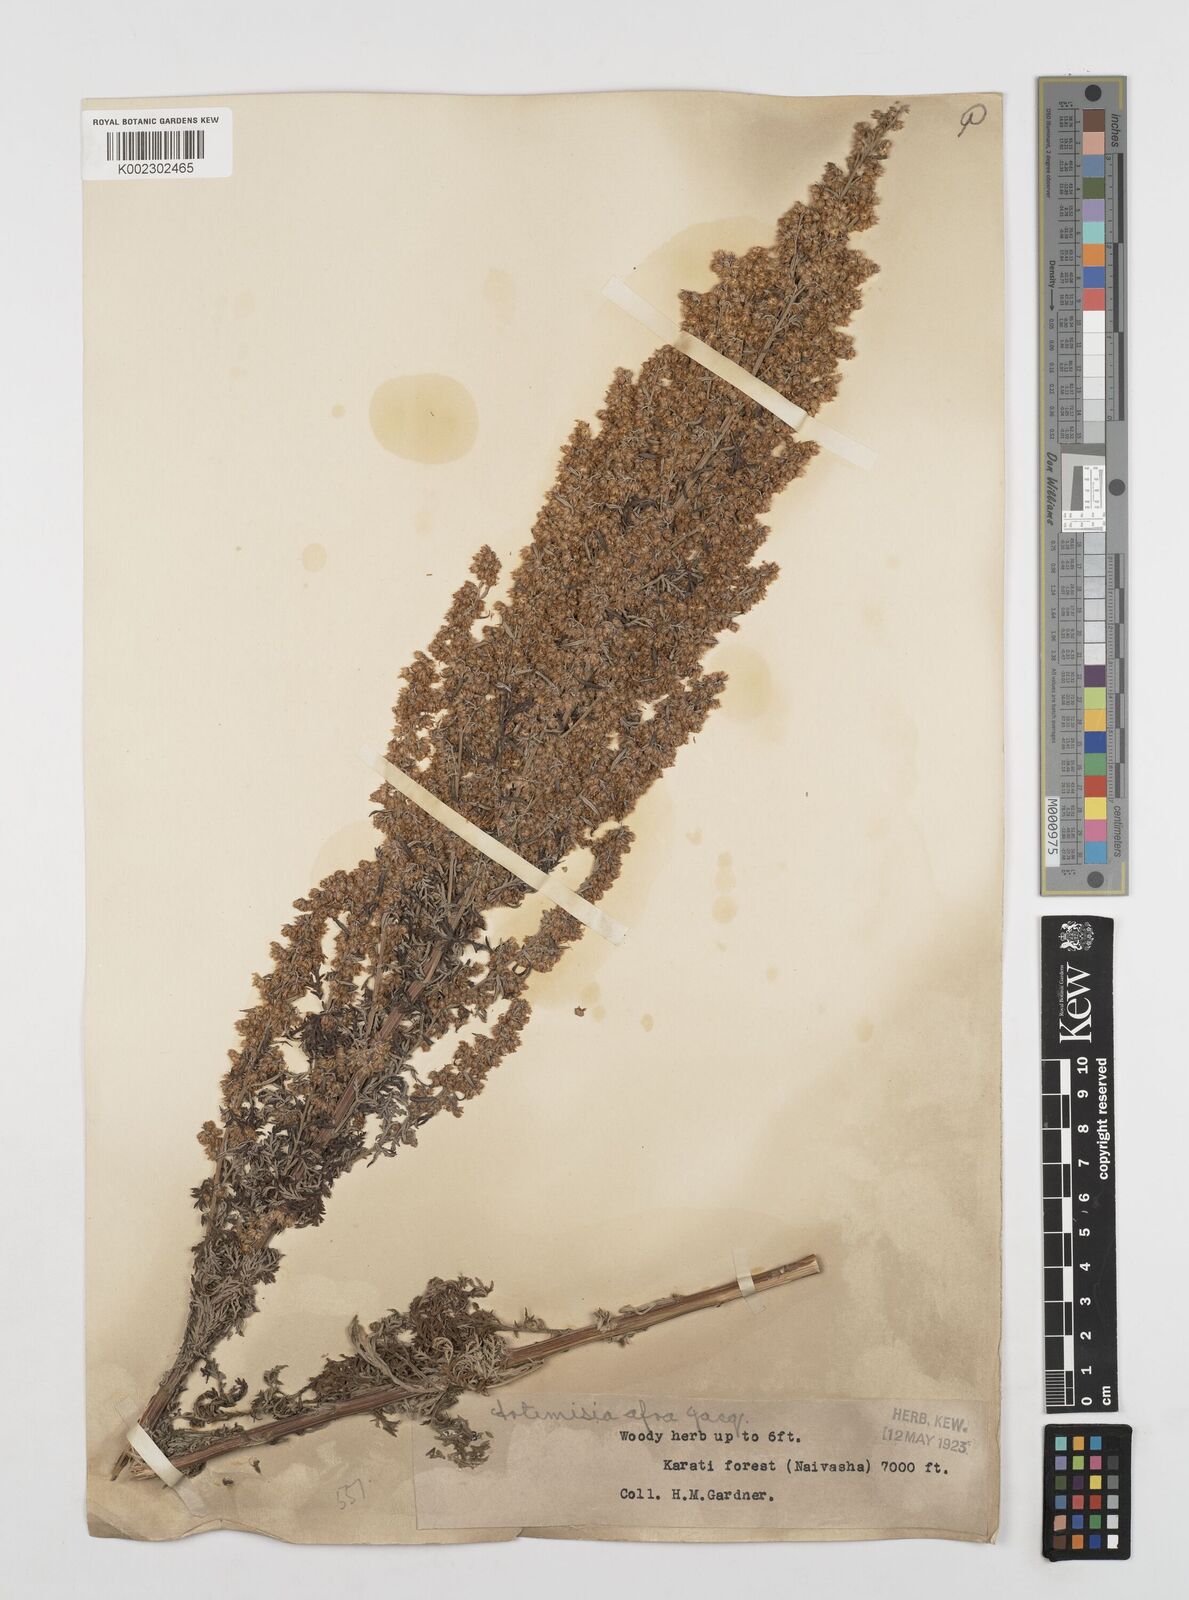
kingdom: Plantae
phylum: Tracheophyta
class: Magnoliopsida
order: Asterales
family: Asteraceae
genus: Artemisia
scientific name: Artemisia afra
